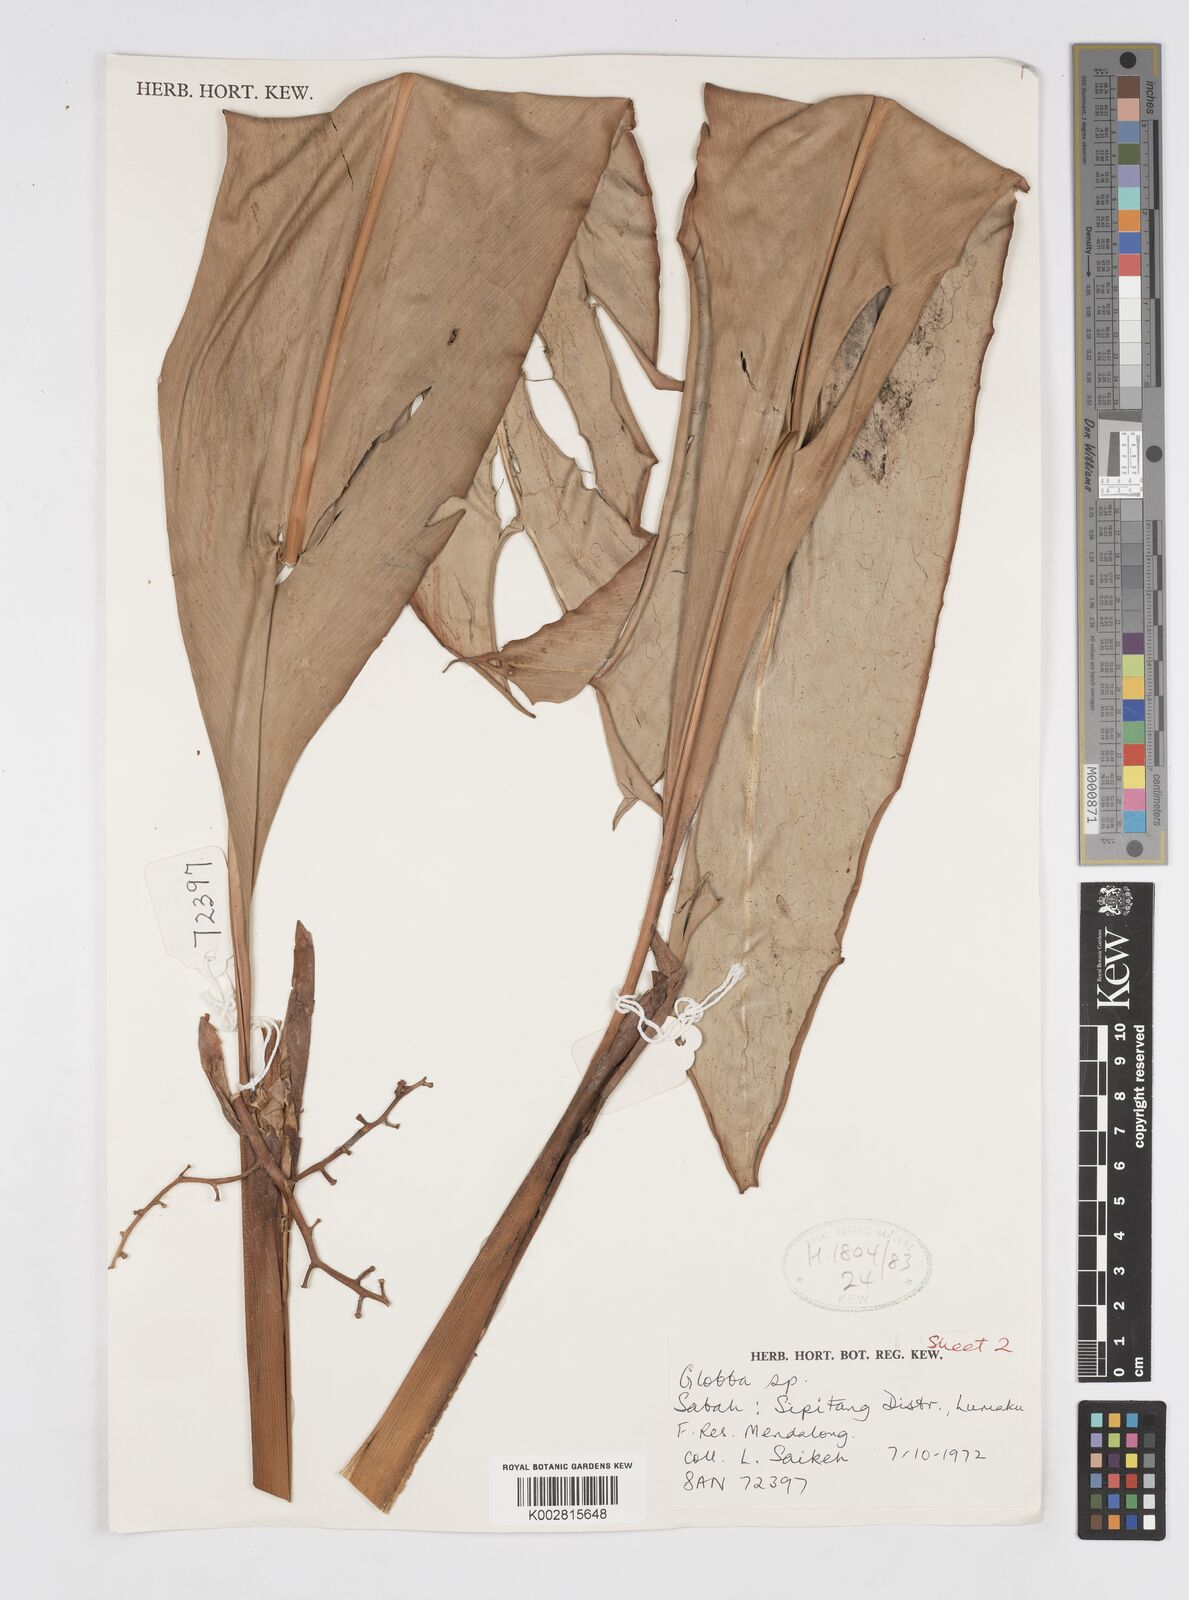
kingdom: Plantae
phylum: Tracheophyta
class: Liliopsida
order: Zingiberales
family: Zingiberaceae
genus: Alpinia
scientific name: Alpinia ligulata
